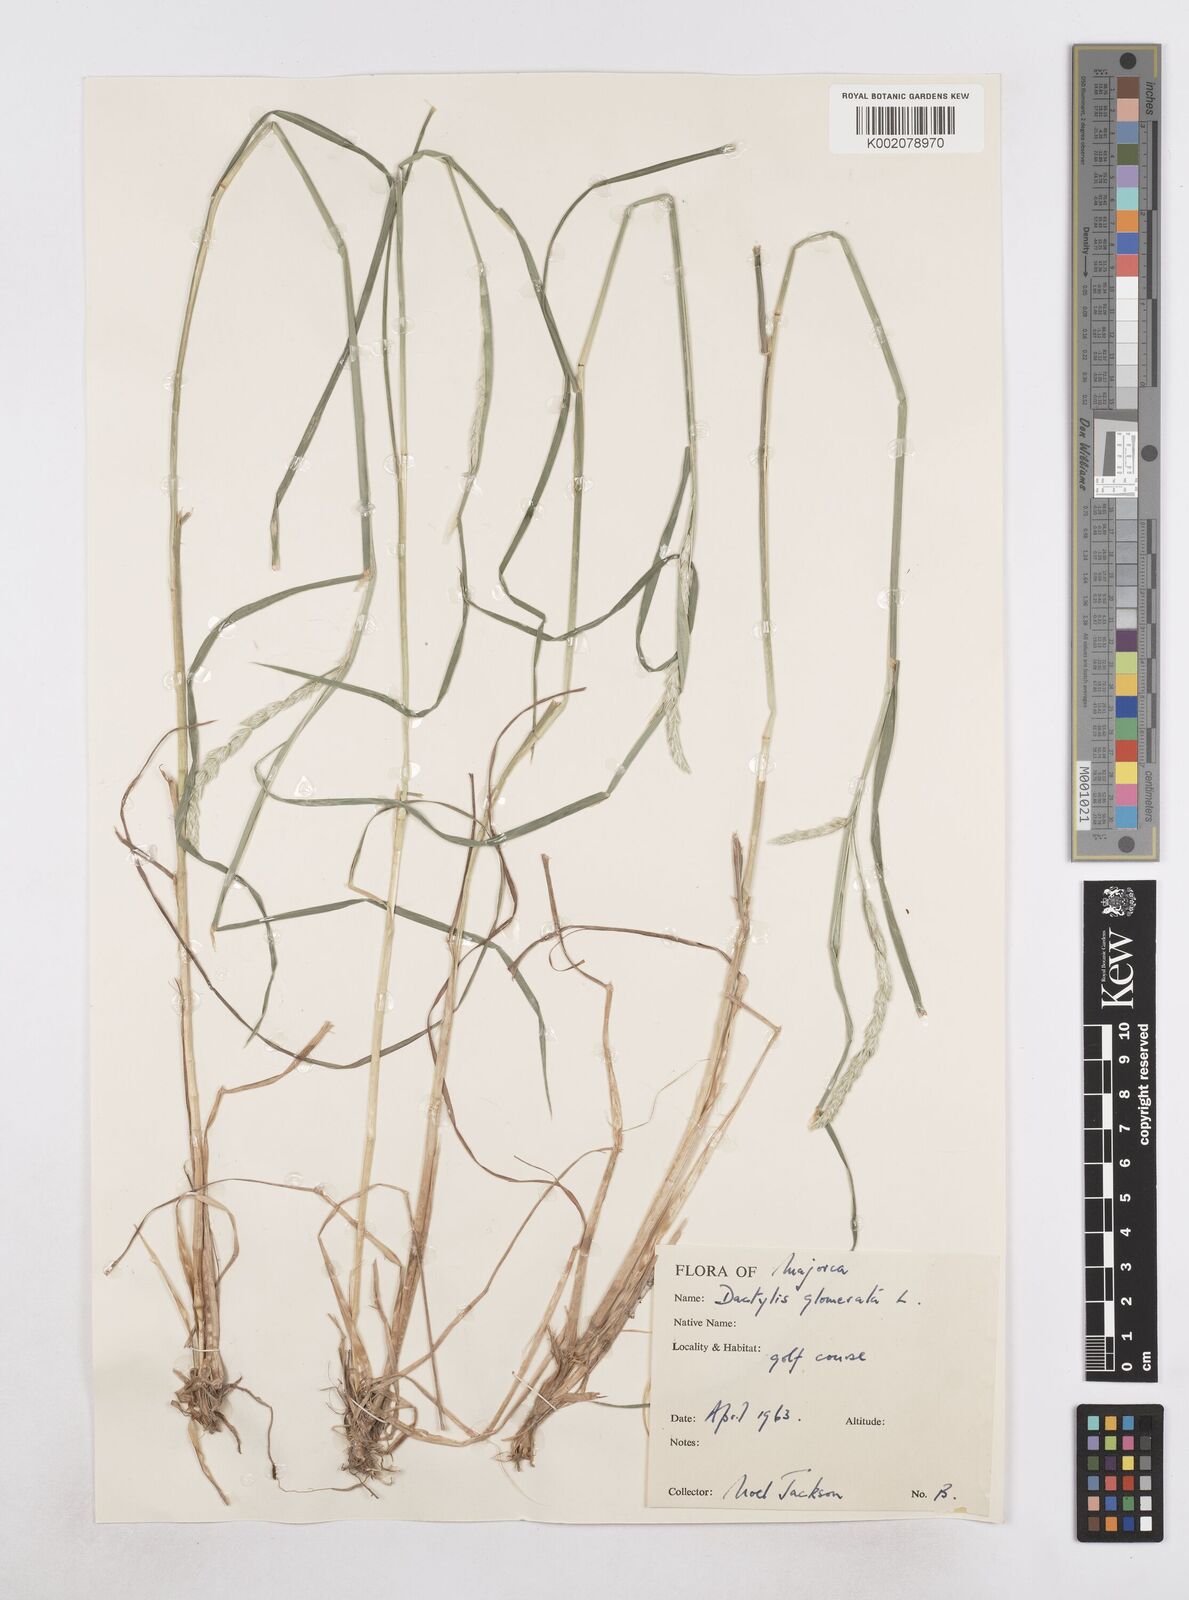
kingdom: Plantae
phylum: Tracheophyta
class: Liliopsida
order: Poales
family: Poaceae
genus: Dactylis
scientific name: Dactylis glomerata
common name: Orchardgrass
